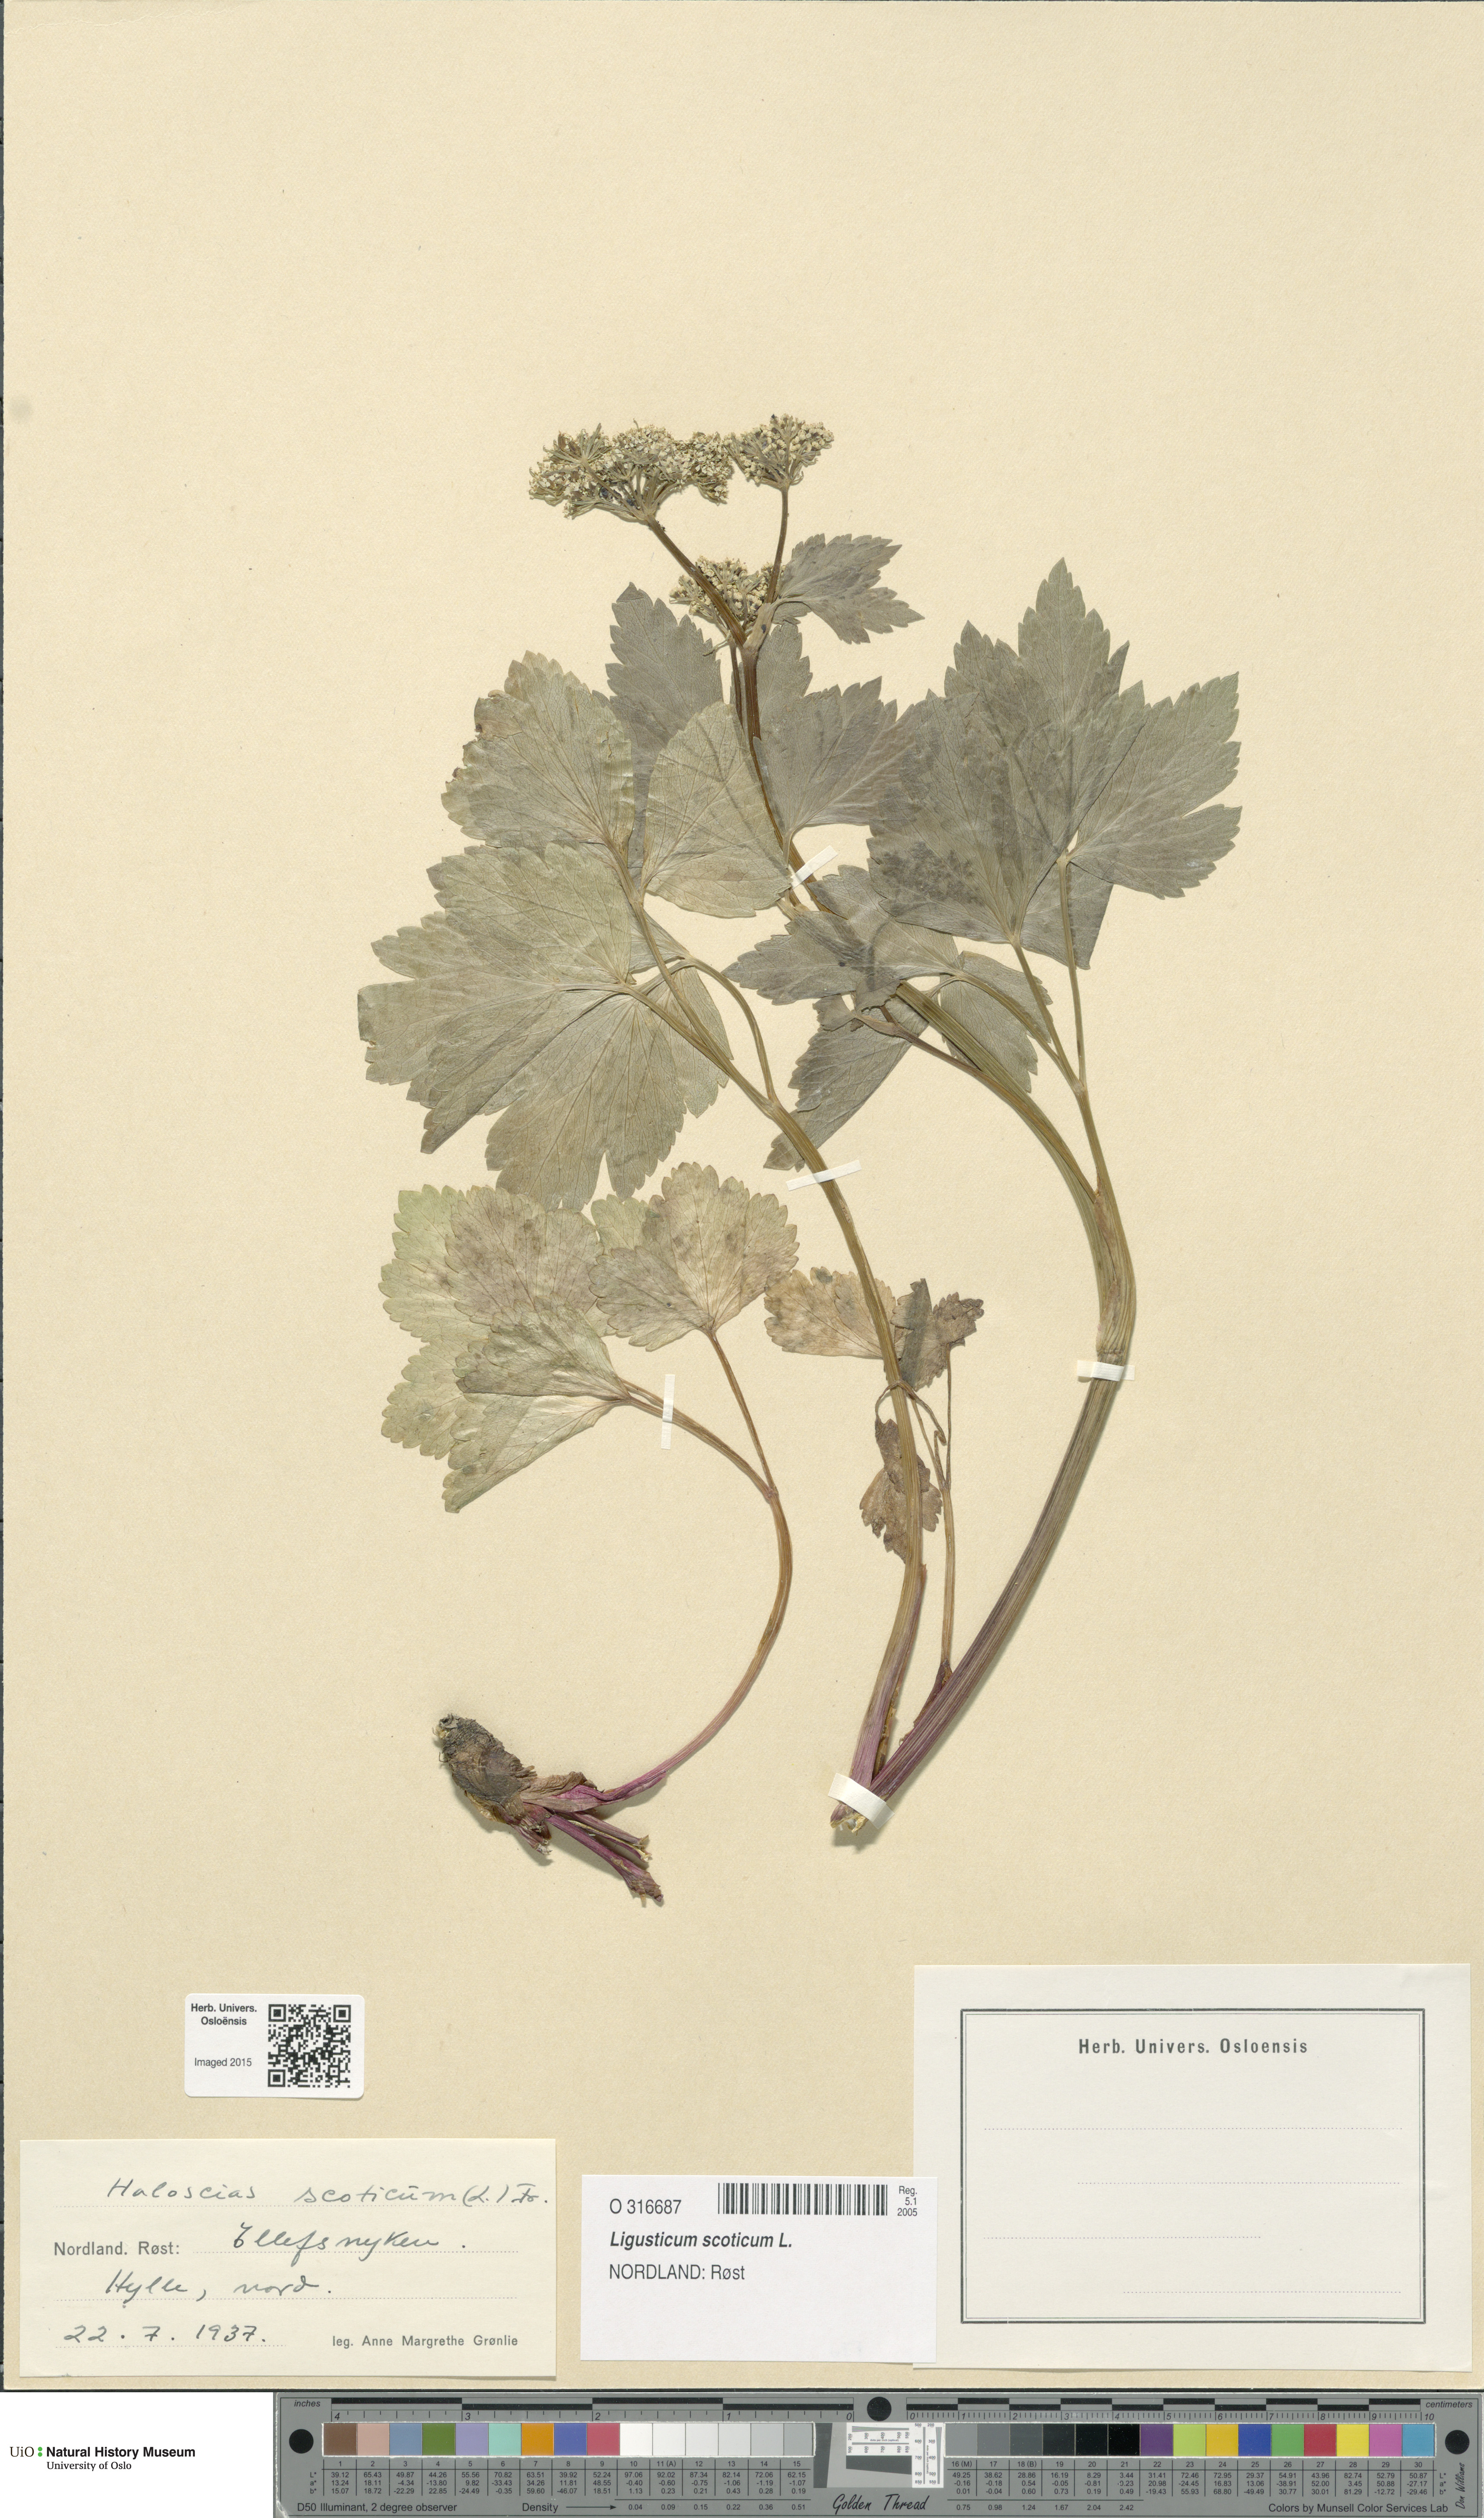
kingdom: Plantae
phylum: Tracheophyta
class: Magnoliopsida
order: Apiales
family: Apiaceae
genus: Ligusticum
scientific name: Ligusticum scothicum
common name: Beach lovage
